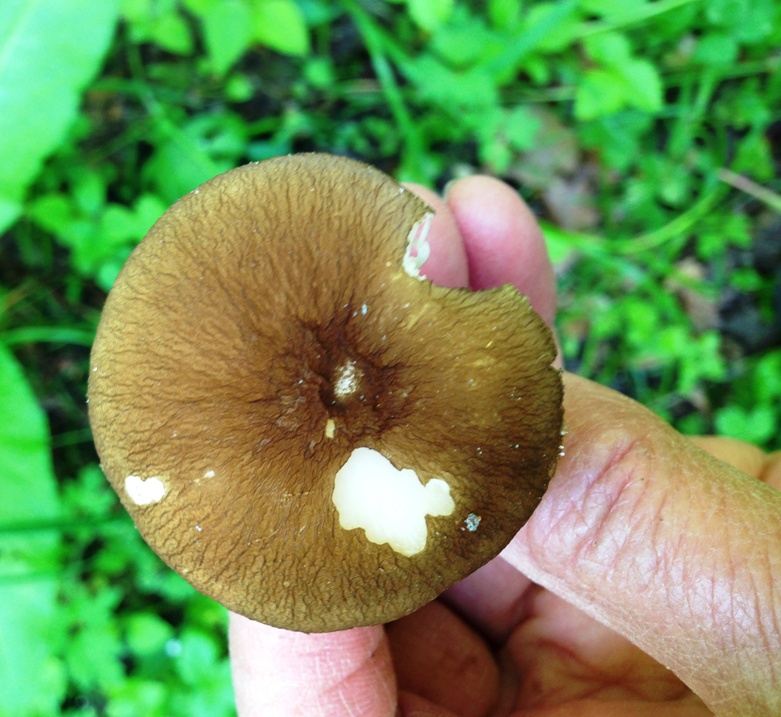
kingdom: Fungi
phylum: Basidiomycota
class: Agaricomycetes
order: Agaricales
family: Pluteaceae
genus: Pluteus
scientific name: Pluteus romellii
